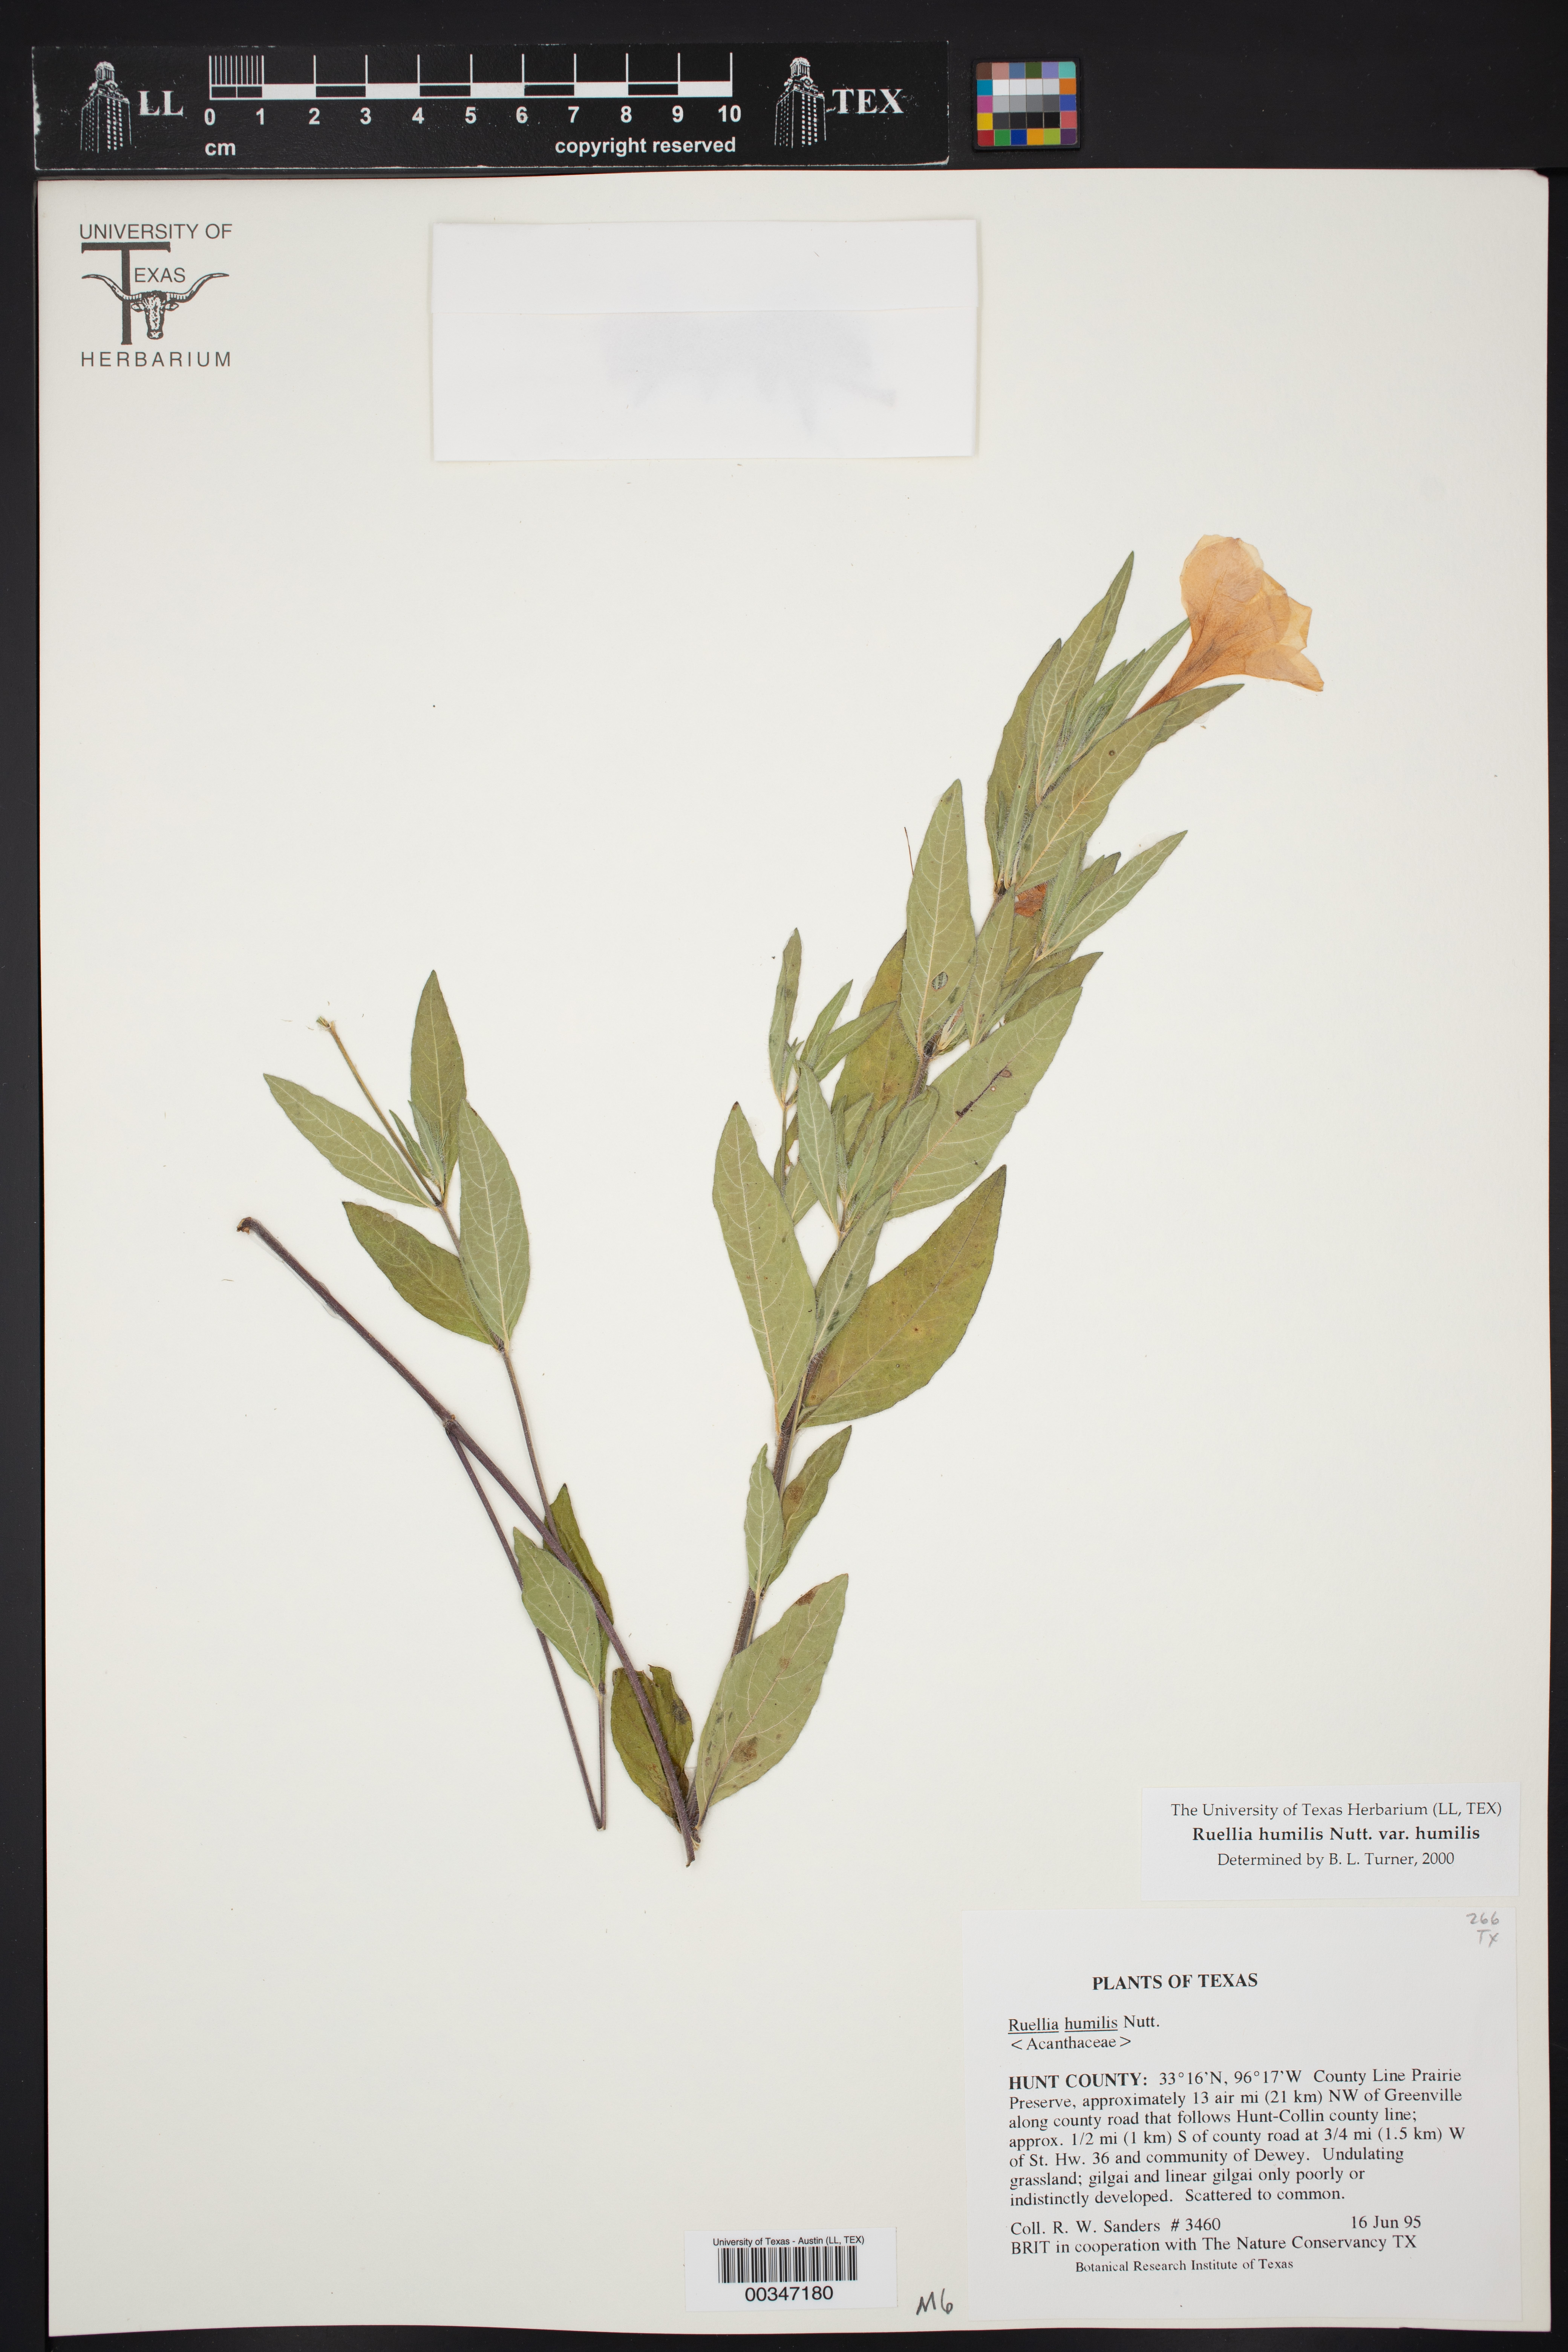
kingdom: Plantae
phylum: Tracheophyta
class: Magnoliopsida
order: Lamiales
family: Acanthaceae
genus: Ruellia
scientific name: Ruellia humilis
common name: Fringe-leaf ruellia
